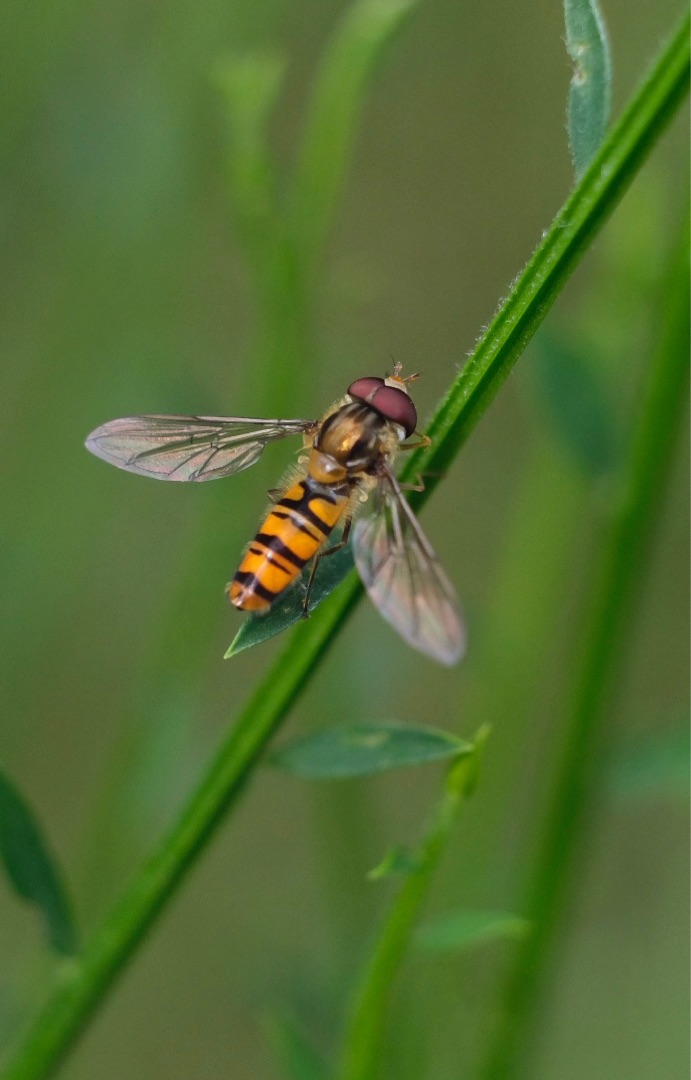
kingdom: Animalia
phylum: Arthropoda
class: Insecta
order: Diptera
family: Syrphidae
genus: Episyrphus
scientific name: Episyrphus balteatus
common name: Dobbeltbåndet svirreflue
